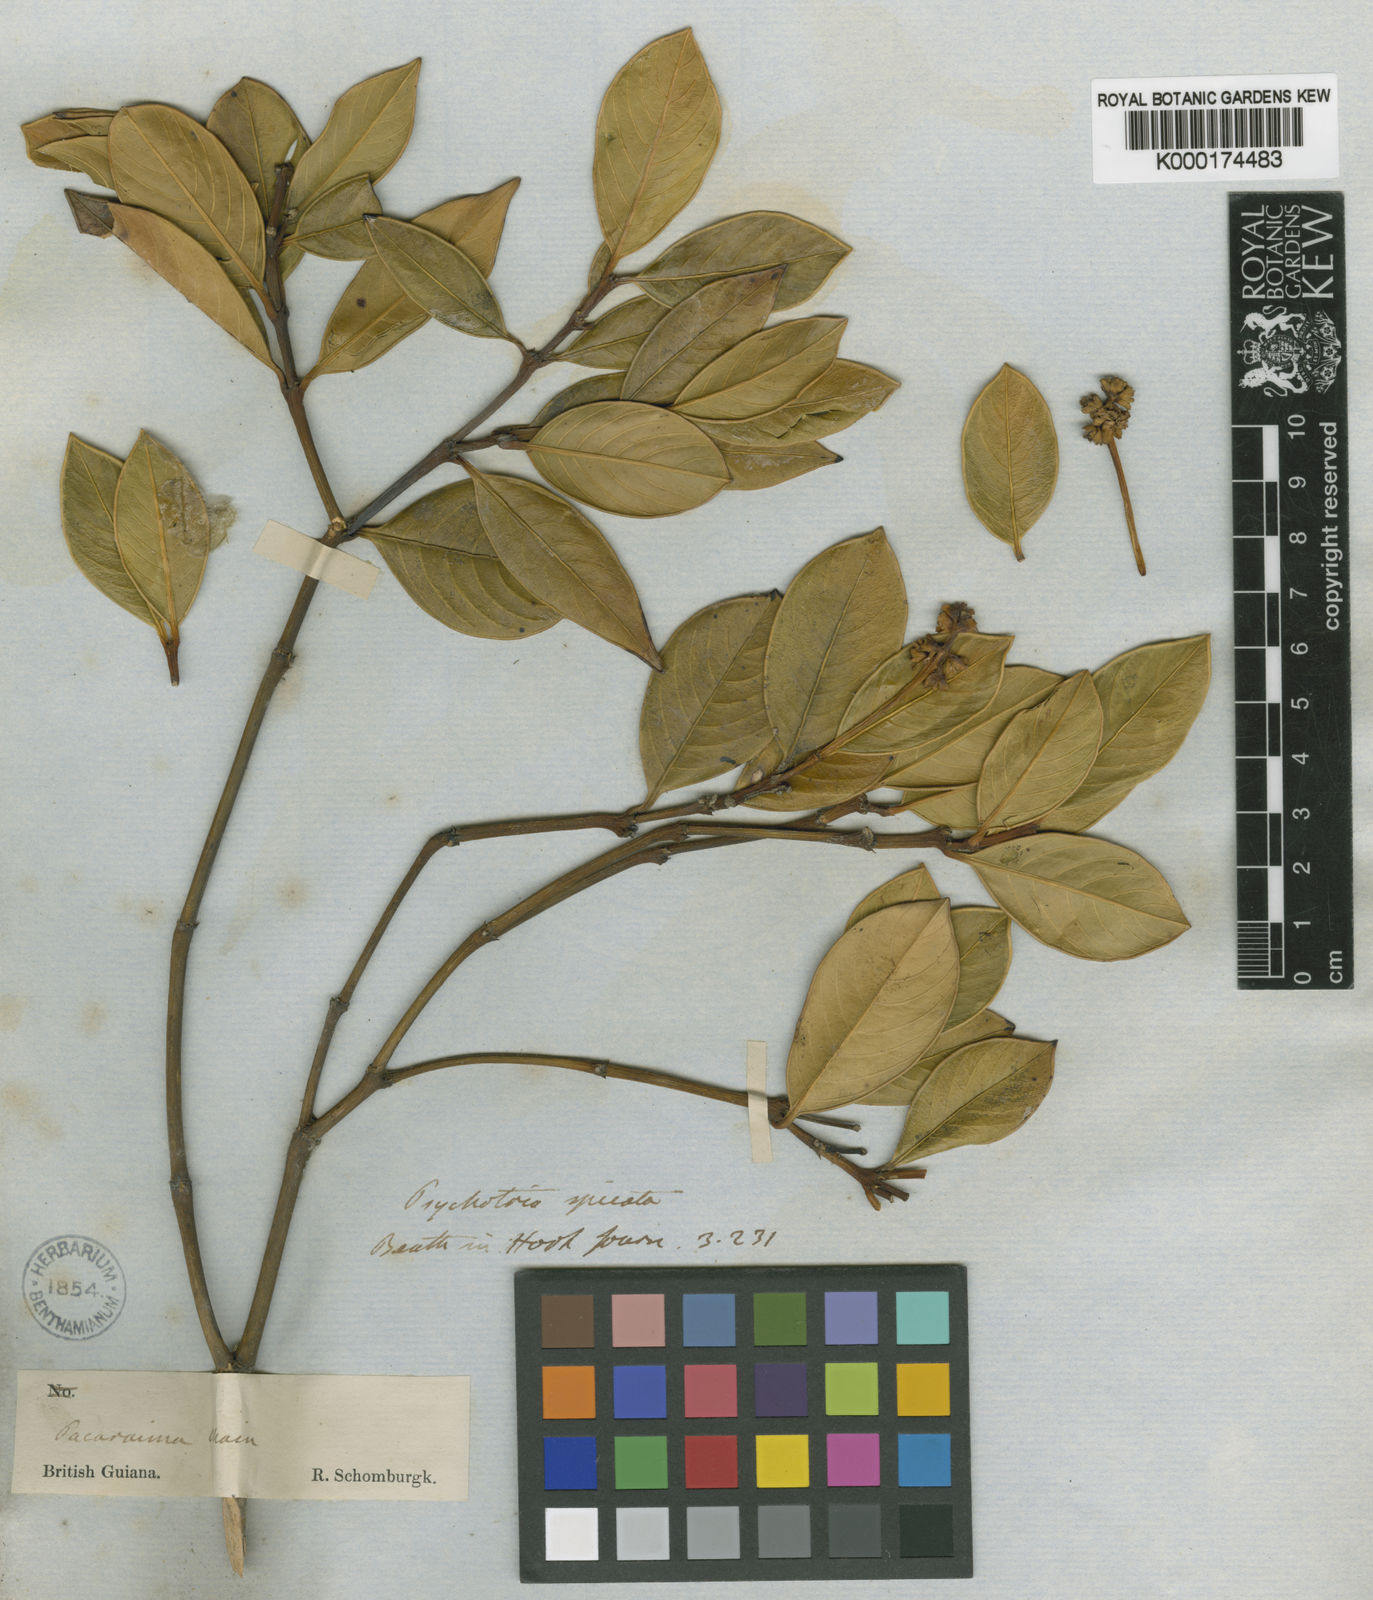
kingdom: Plantae
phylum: Tracheophyta
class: Magnoliopsida
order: Gentianales
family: Rubiaceae
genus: Palicourea
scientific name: Palicourea phaneroloma
